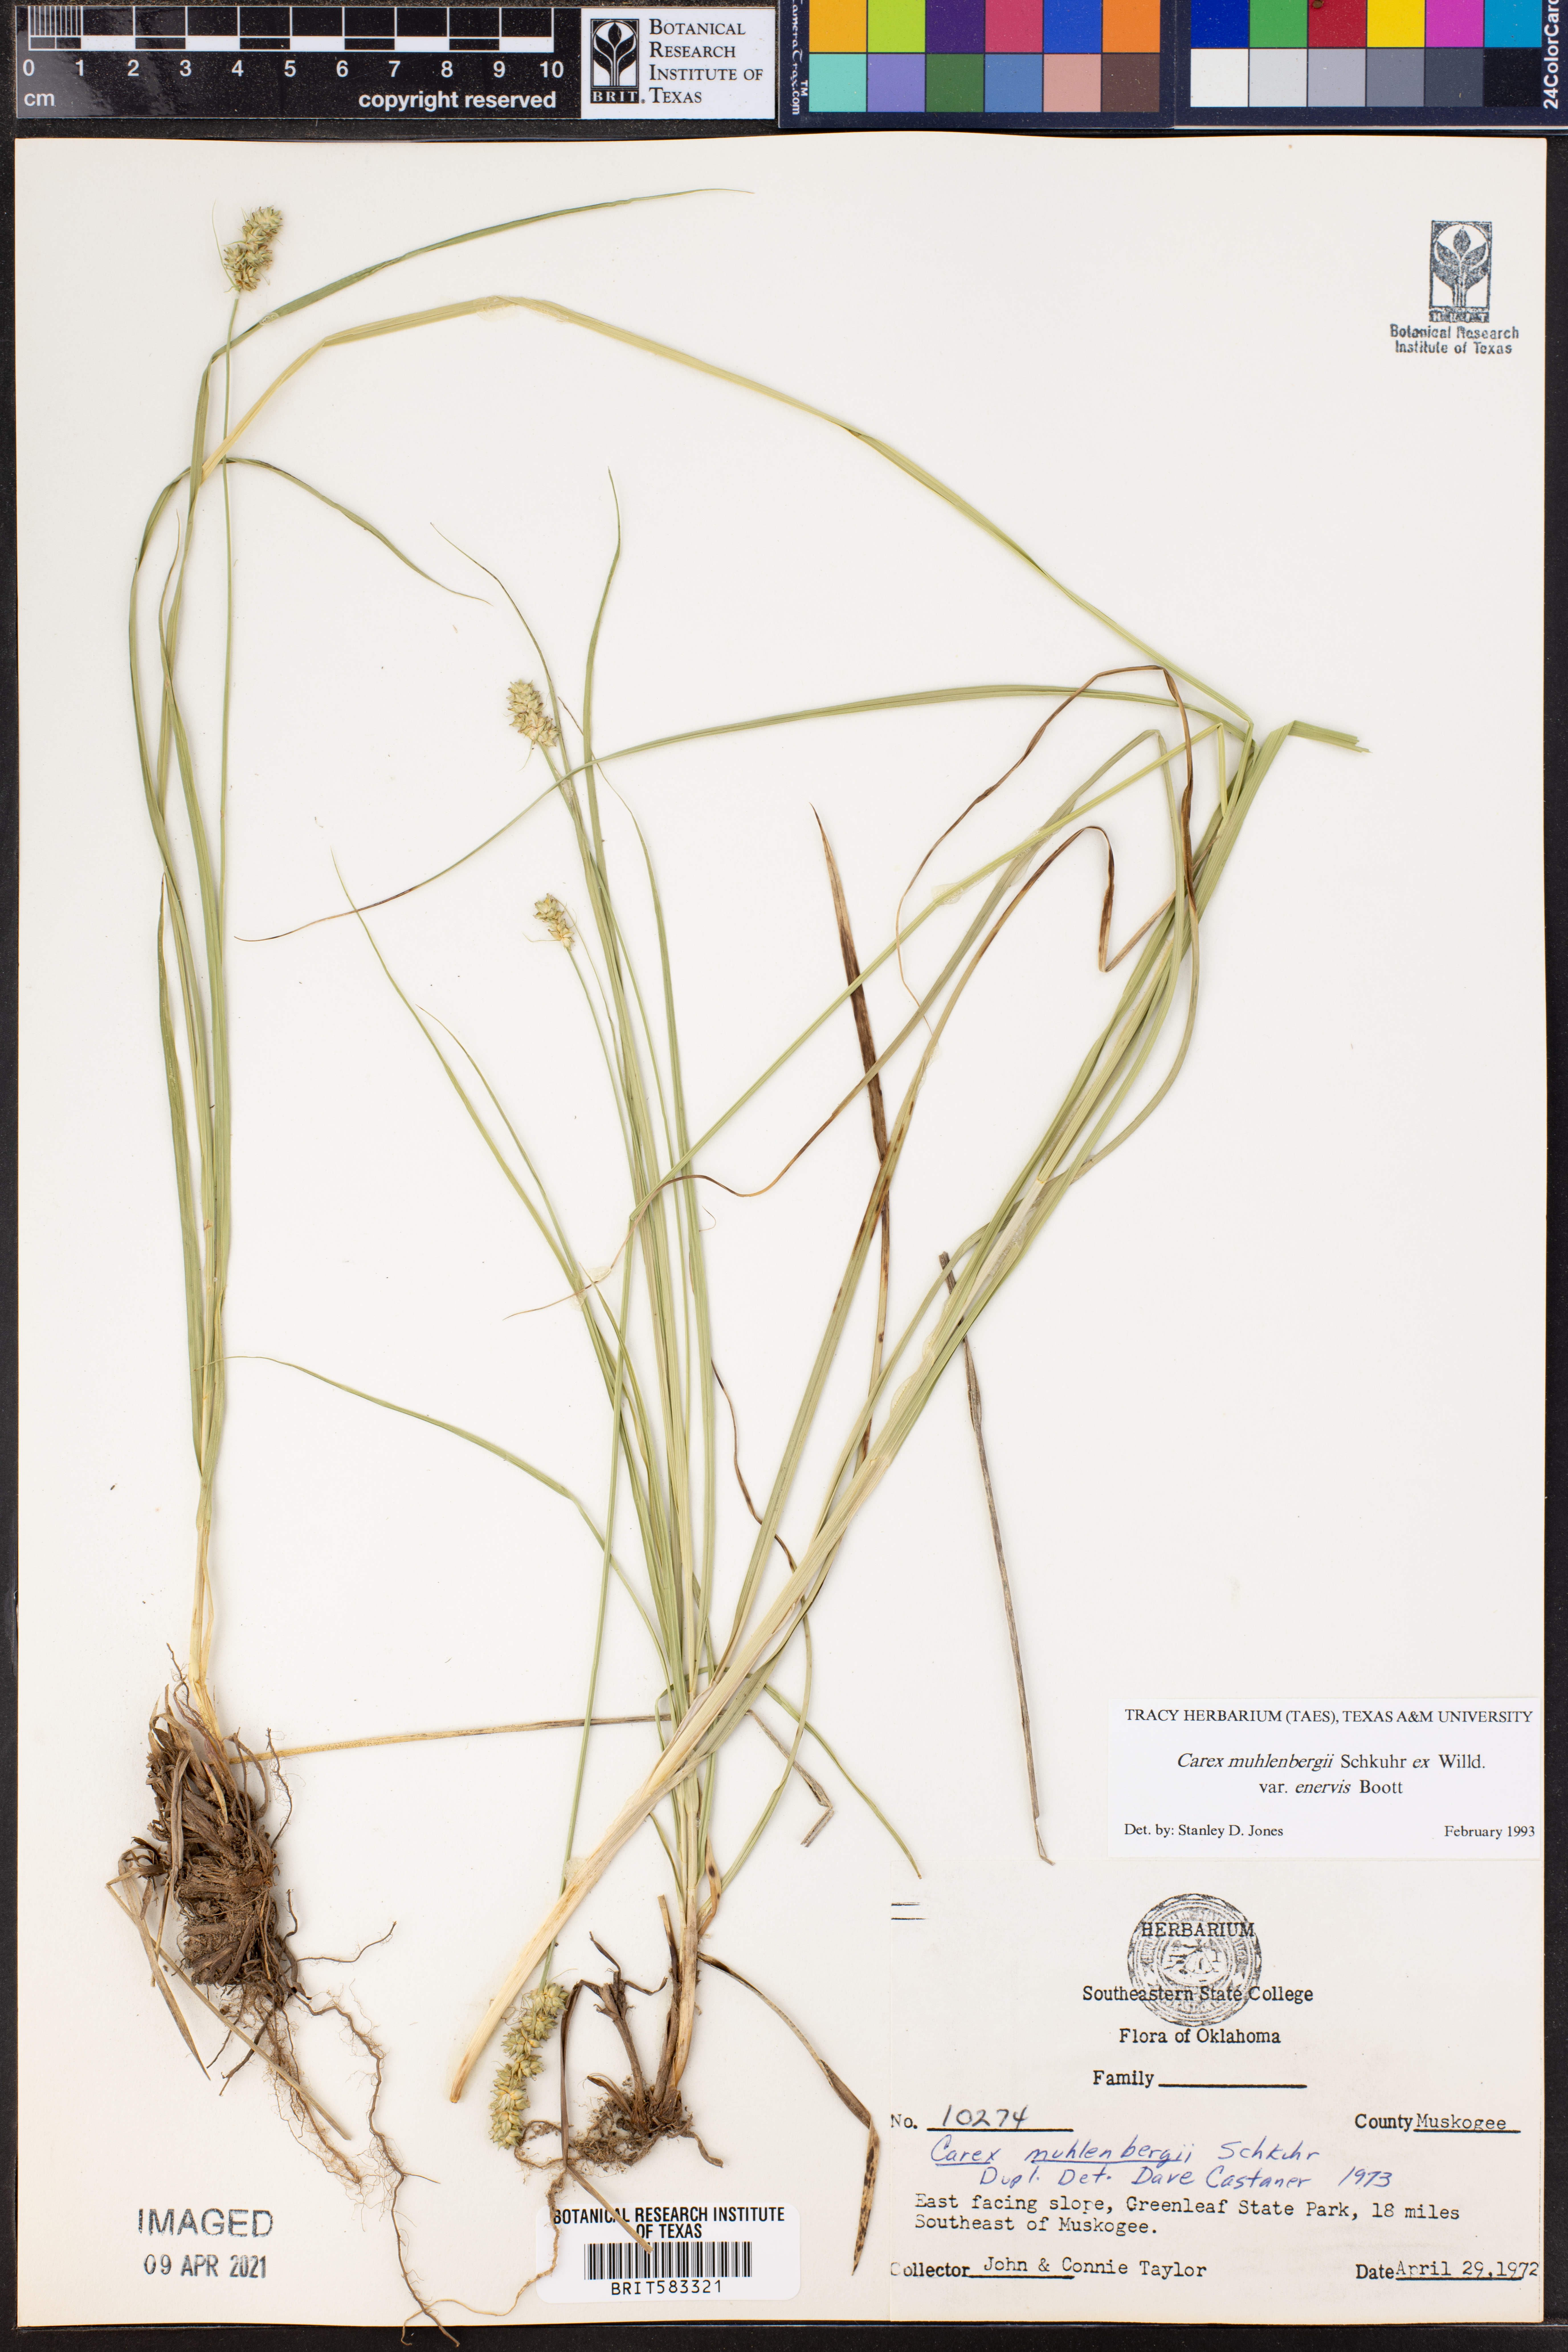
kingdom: Plantae
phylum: Tracheophyta
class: Liliopsida
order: Poales
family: Cyperaceae
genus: Carex
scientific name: Carex vulpinoidea
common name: American fox-sedge
